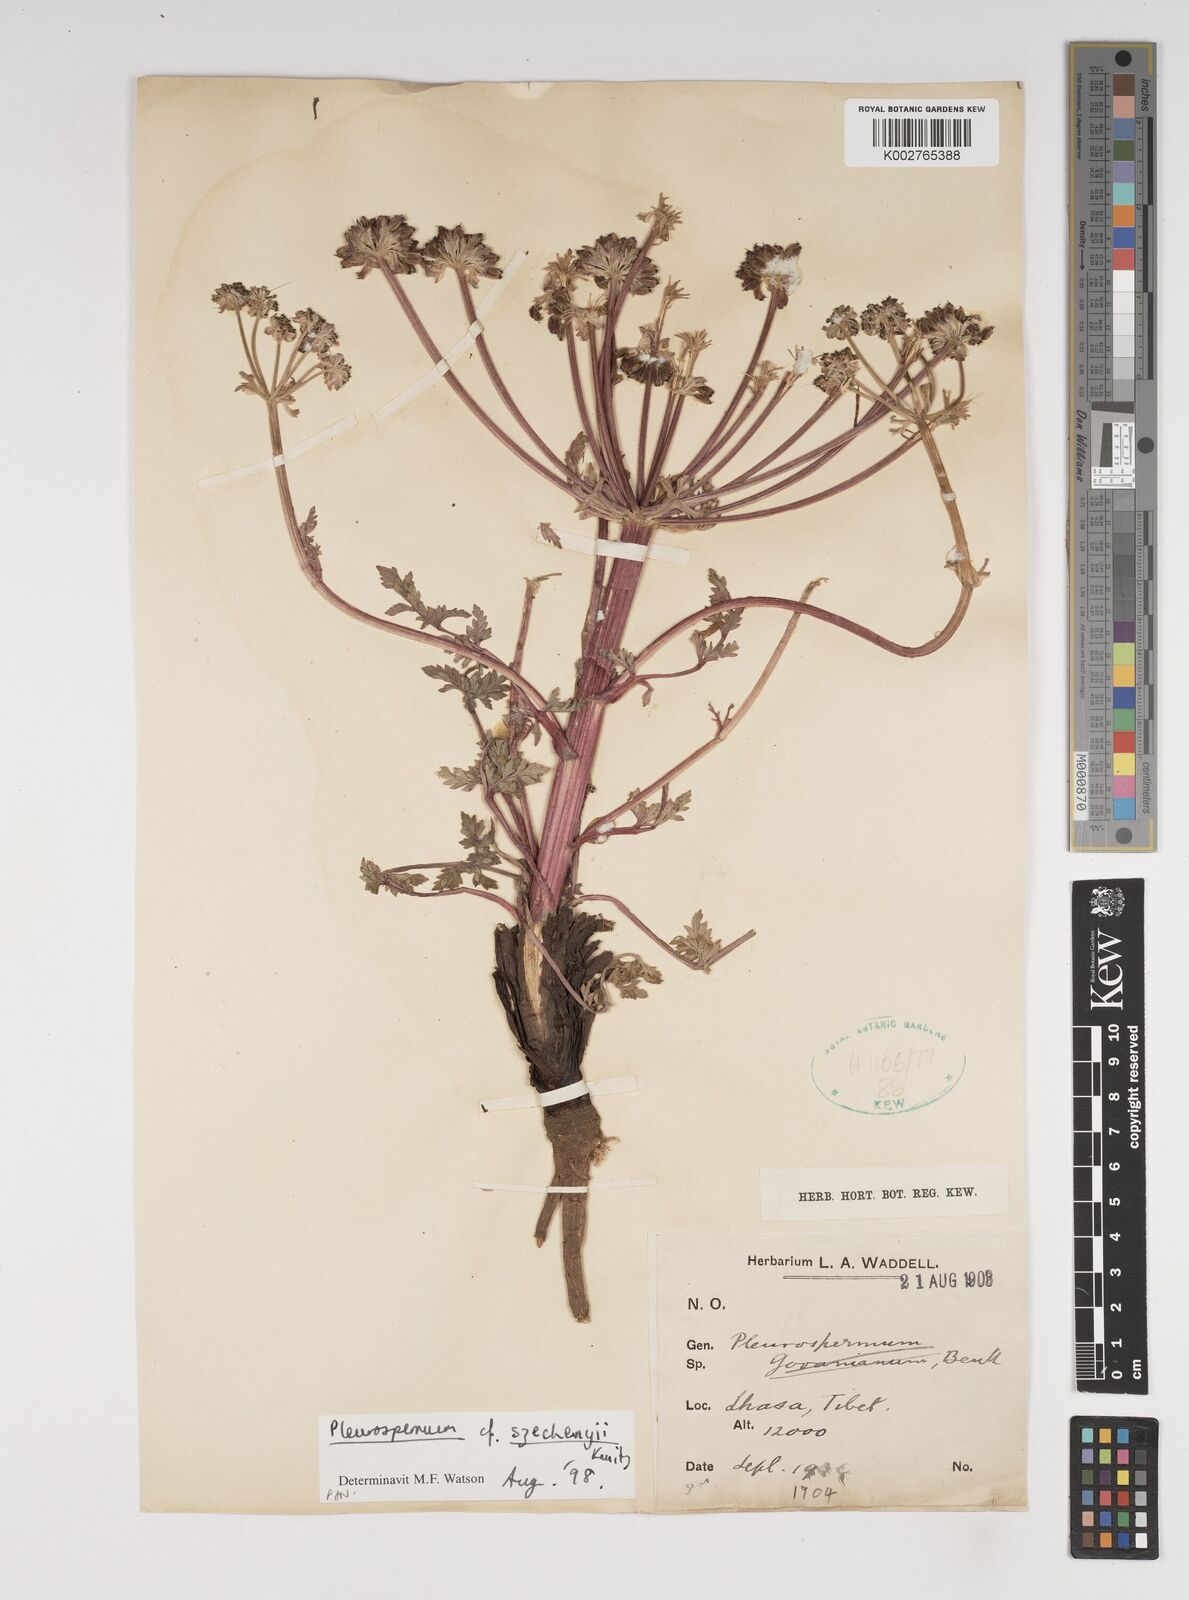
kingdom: Plantae
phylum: Tracheophyta
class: Magnoliopsida
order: Apiales
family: Apiaceae
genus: Hymenidium
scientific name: Hymenidium szechenyi
